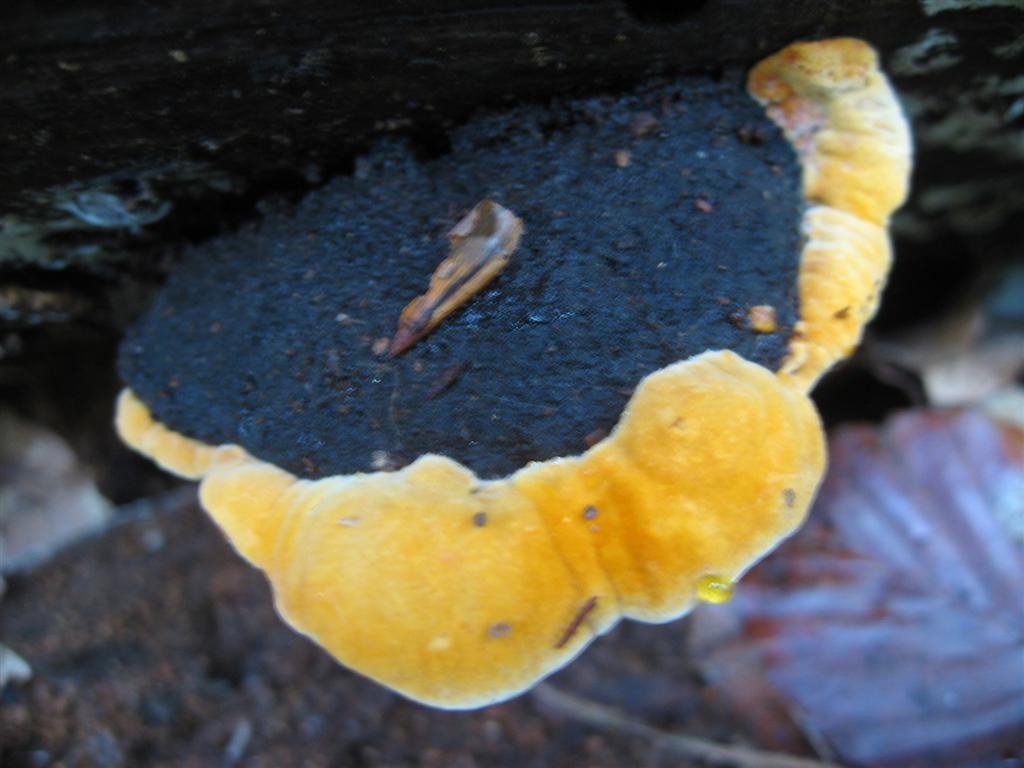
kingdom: Fungi
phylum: Basidiomycota
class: Agaricomycetes
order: Gloeophyllales
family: Gloeophyllaceae
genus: Gloeophyllum
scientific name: Gloeophyllum odoratum
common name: duftende korkhat
